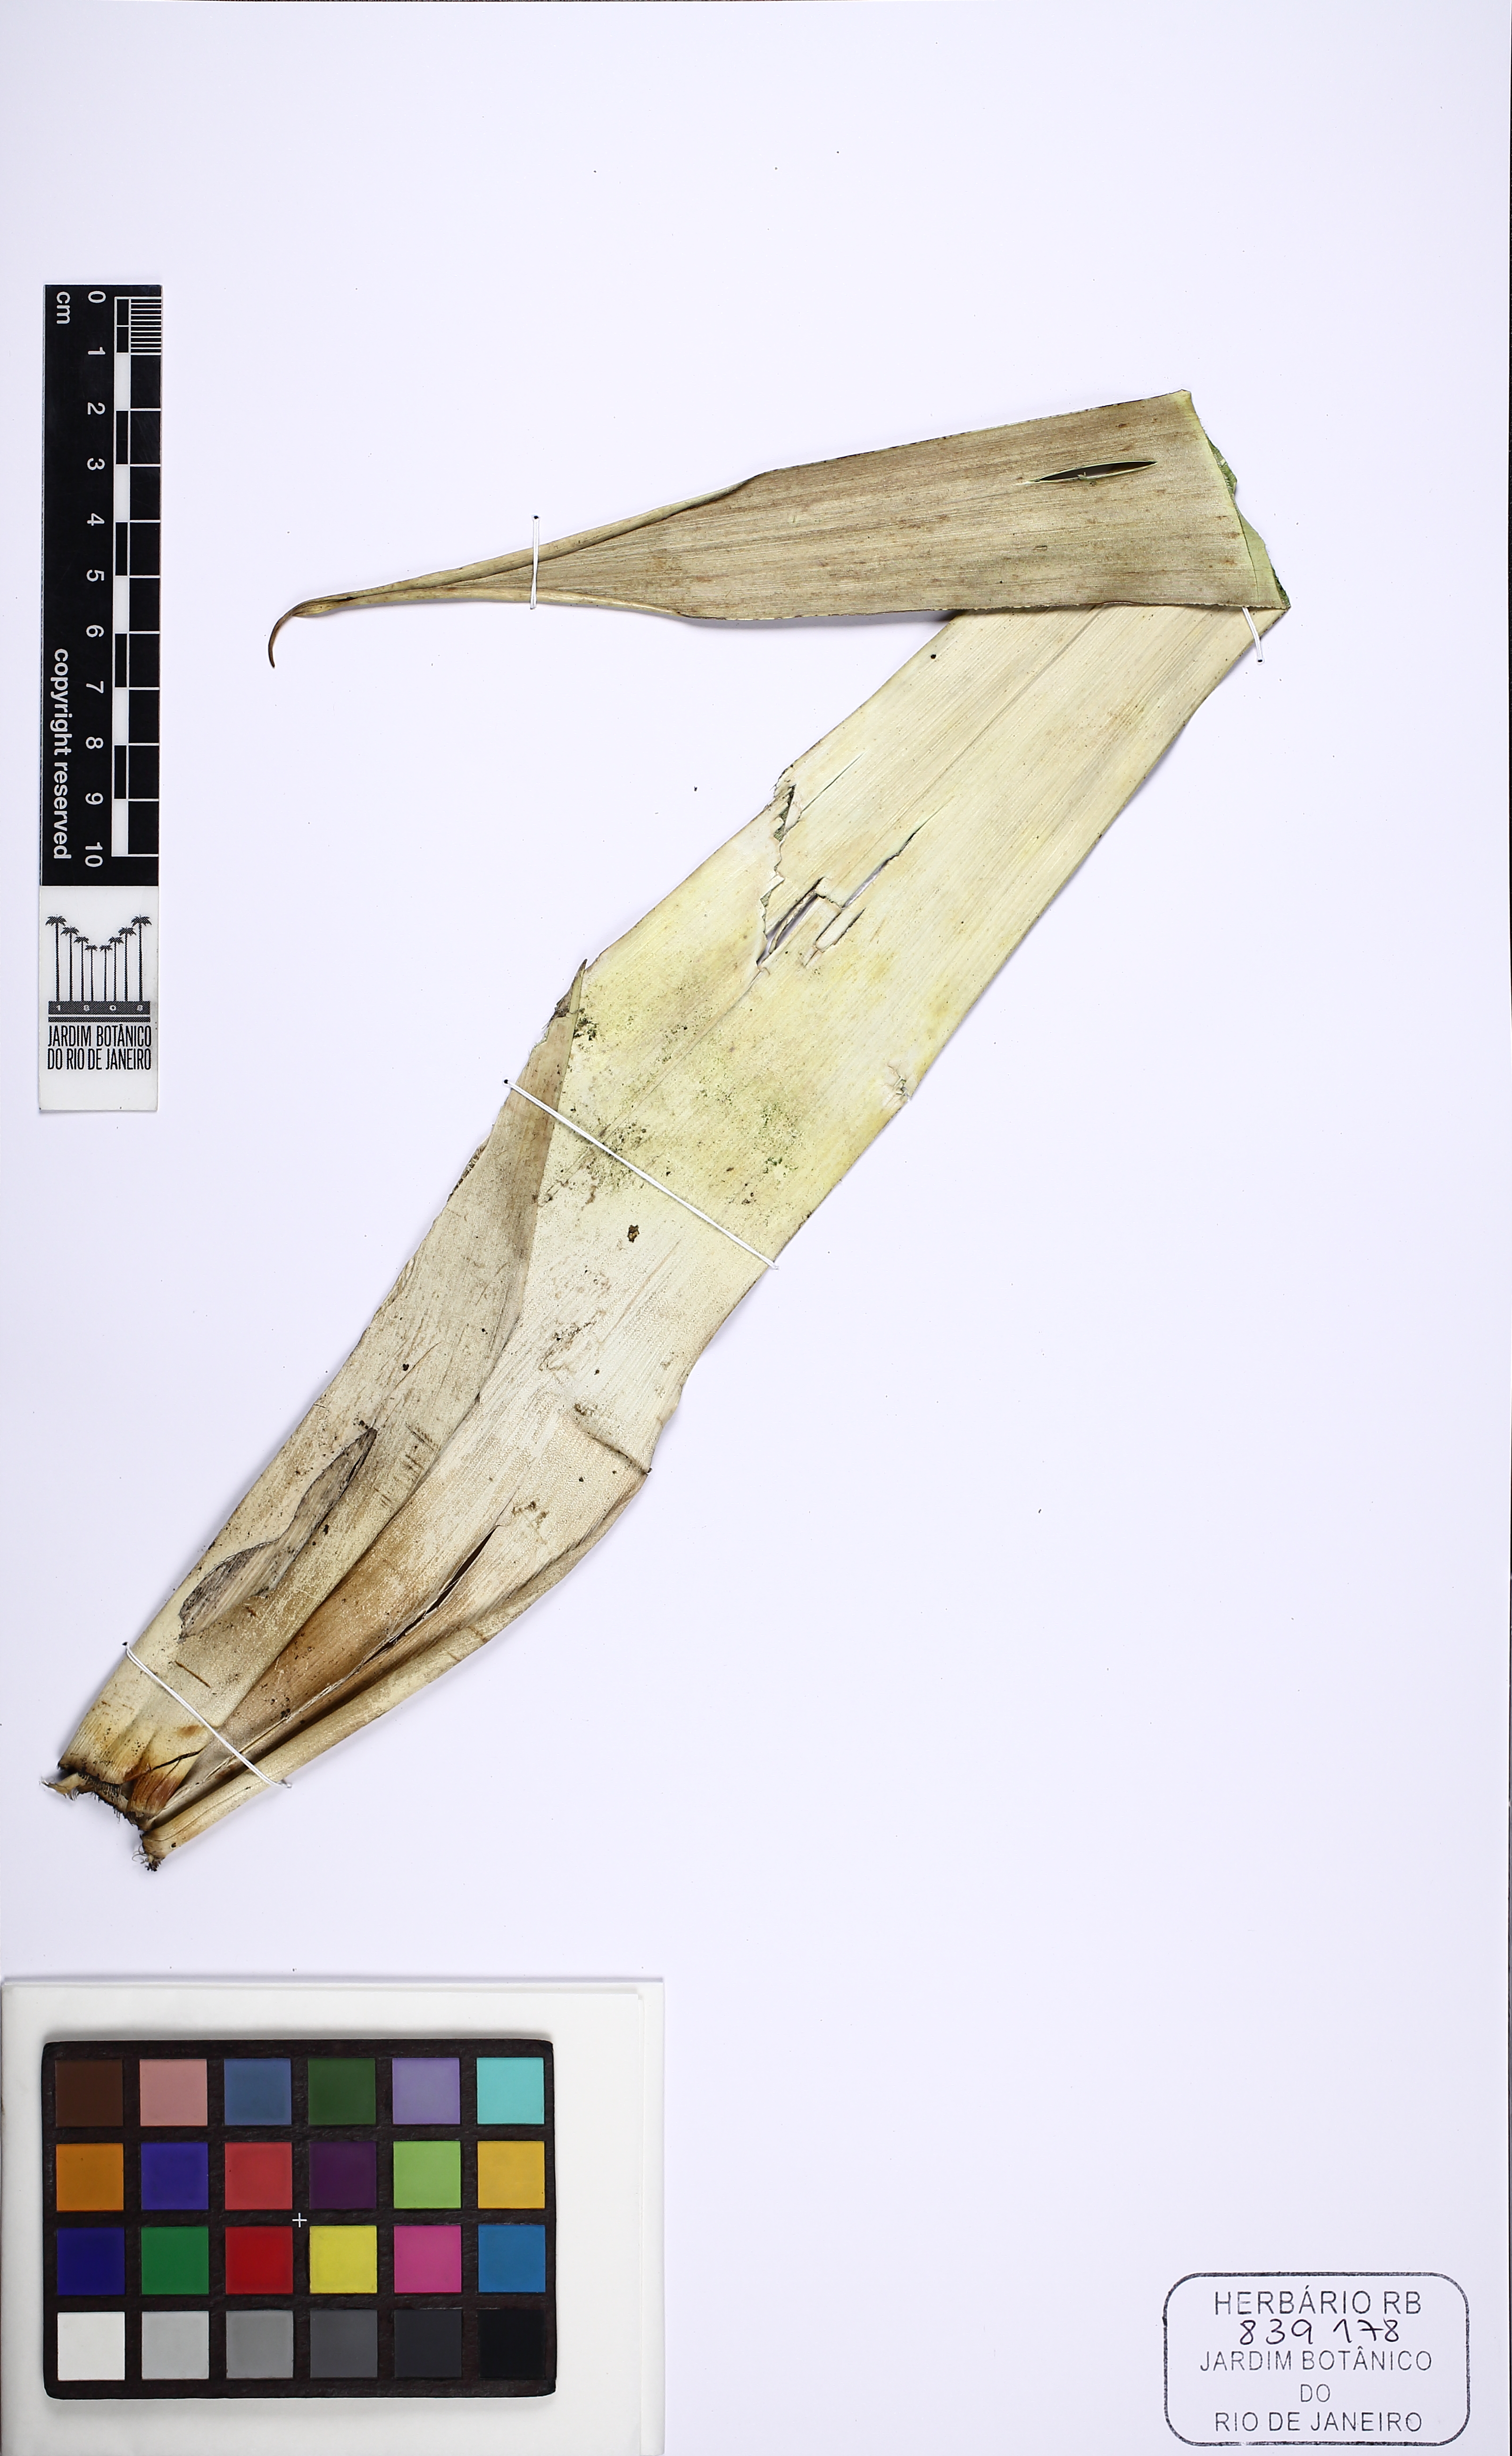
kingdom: Plantae
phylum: Tracheophyta
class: Liliopsida
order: Poales
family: Bromeliaceae
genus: Alcantarea
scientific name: Alcantarea
